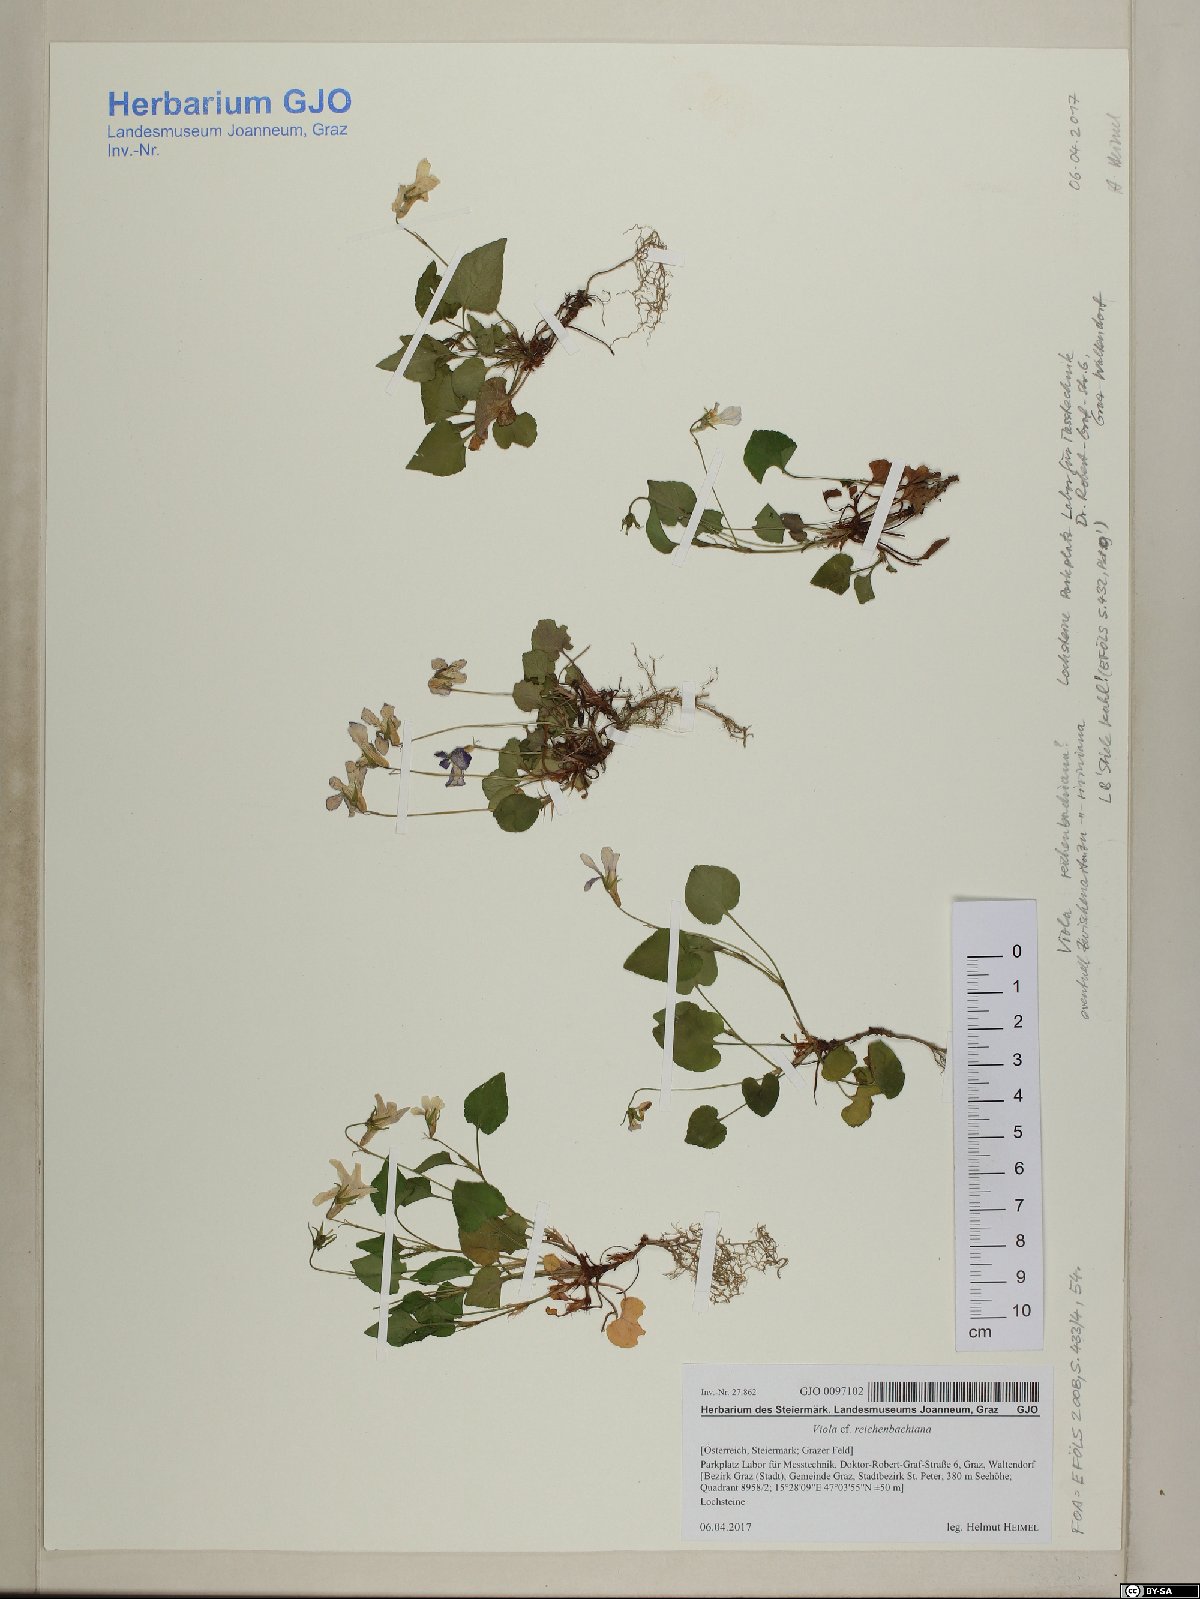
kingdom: Plantae
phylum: Tracheophyta
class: Magnoliopsida
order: Malpighiales
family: Violaceae
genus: Viola
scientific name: Viola reichenbachiana
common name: Early dog-violet
